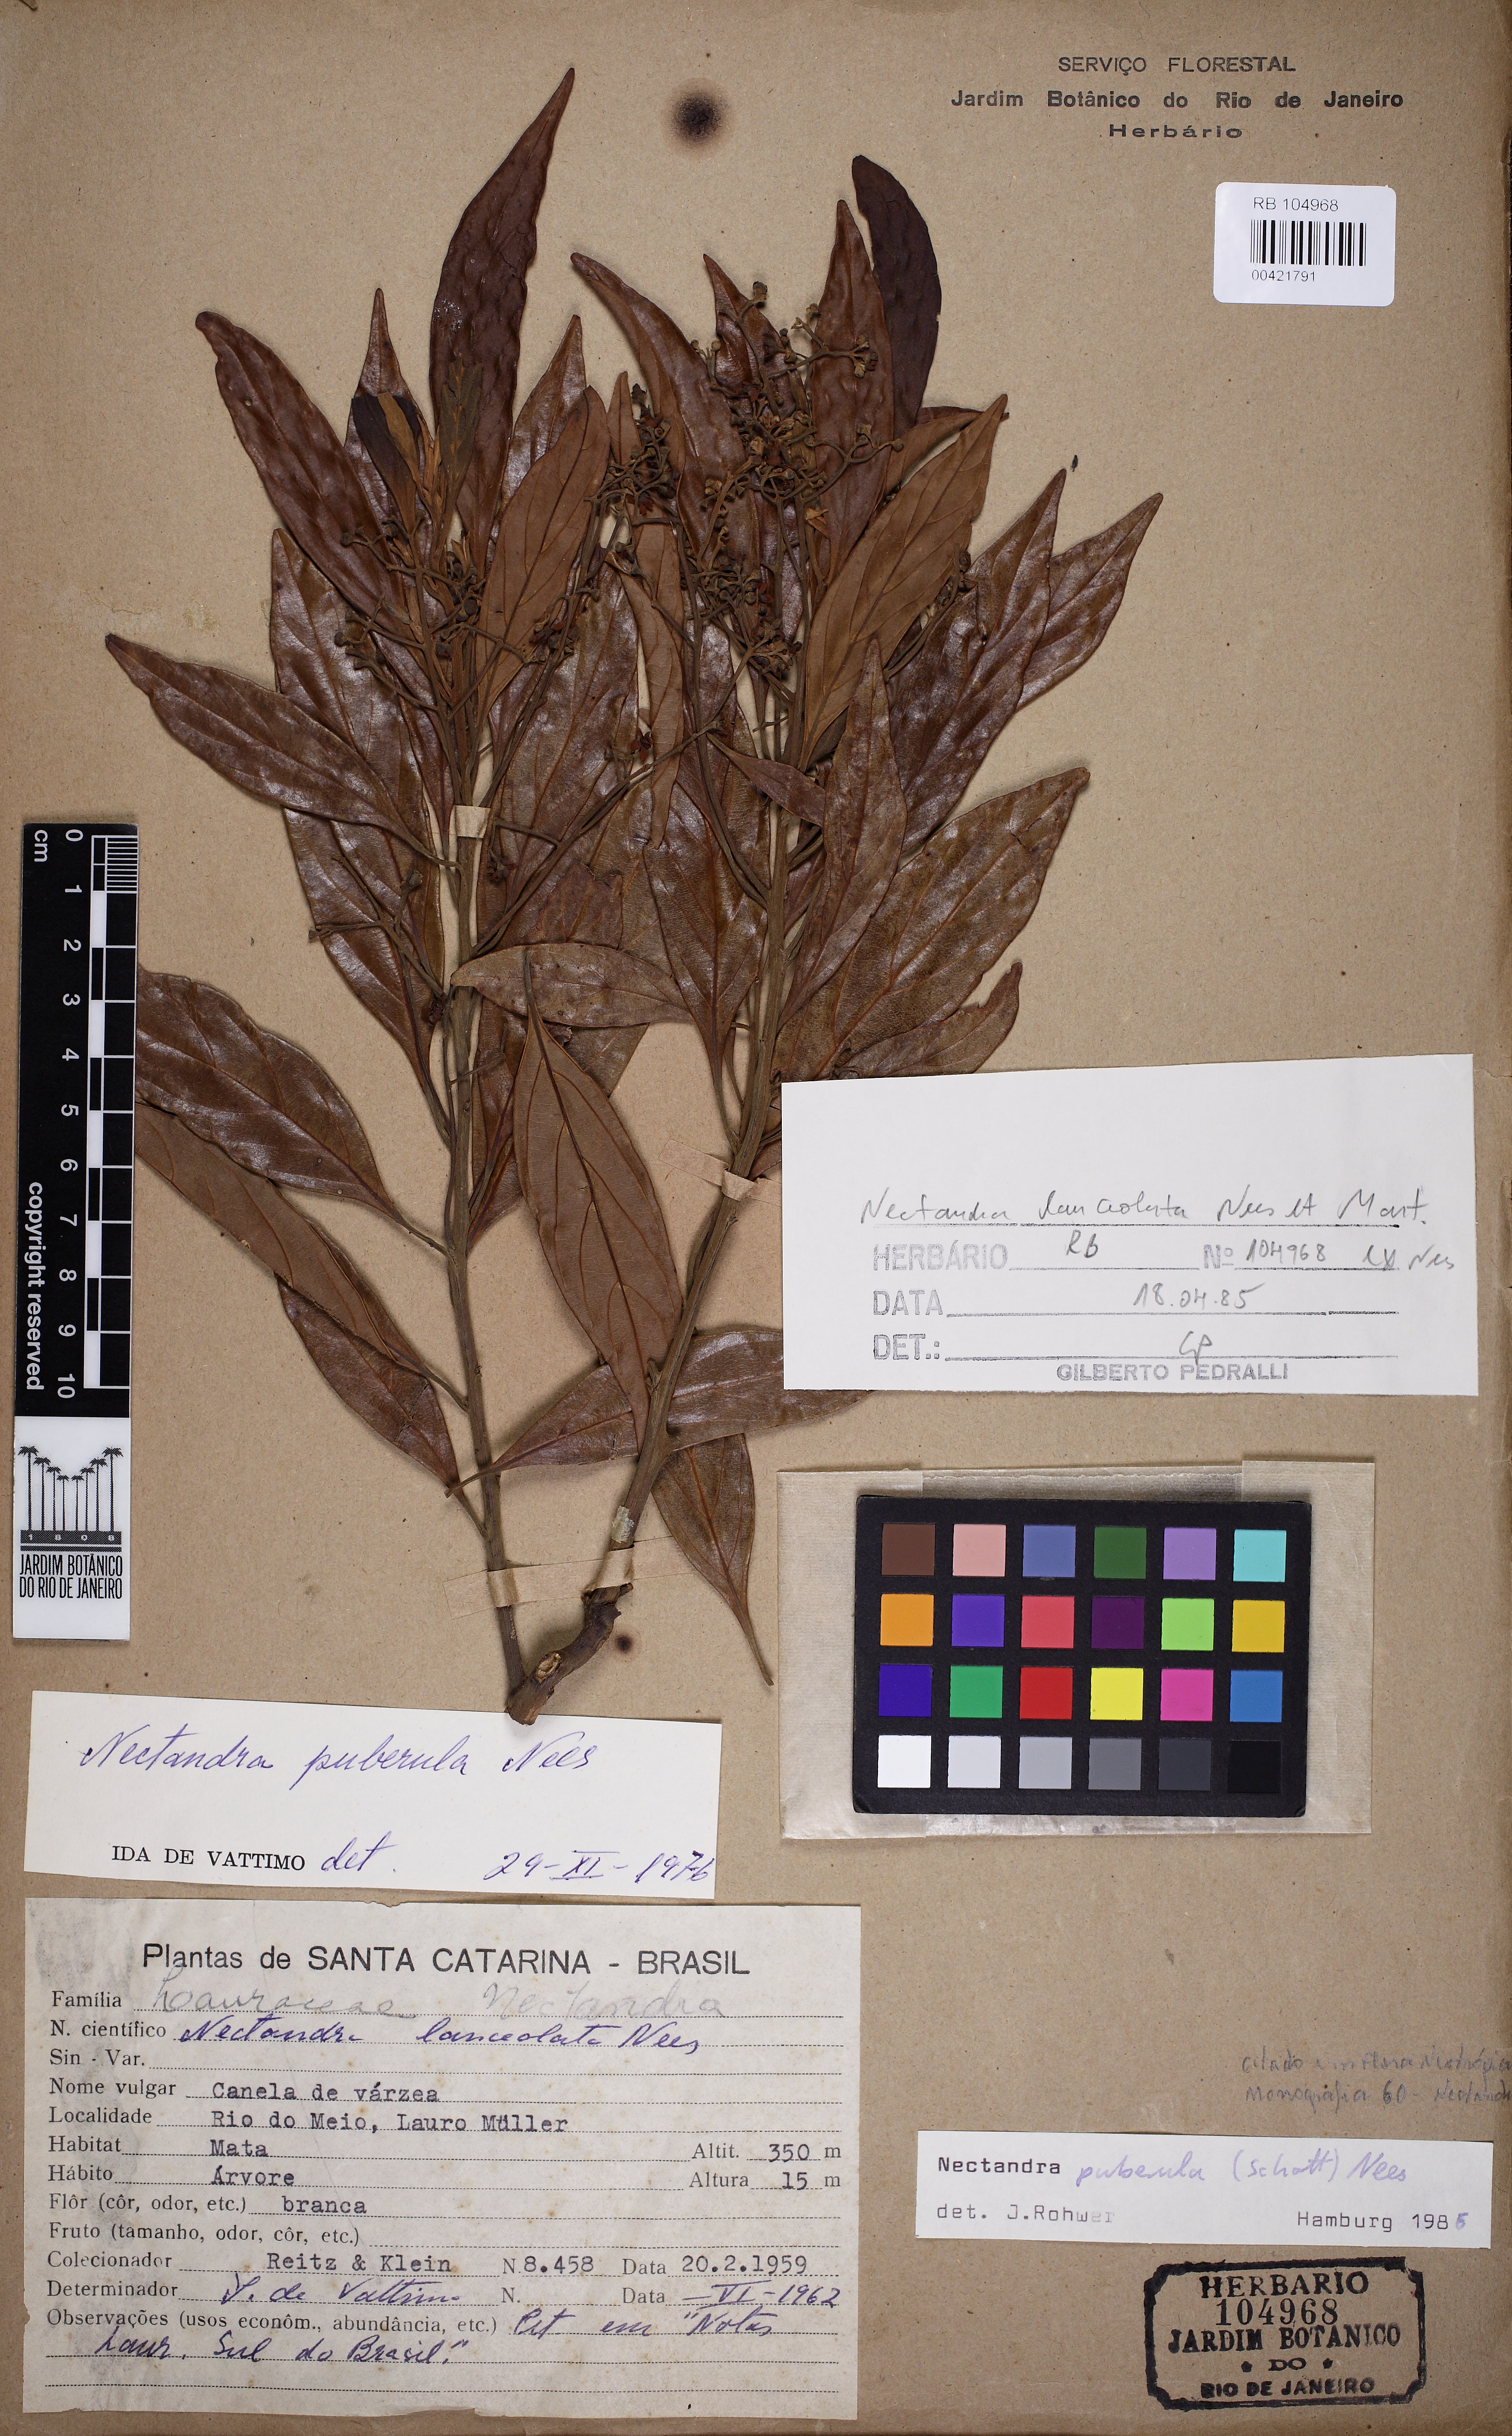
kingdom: Plantae
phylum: Tracheophyta
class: Magnoliopsida
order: Laurales
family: Lauraceae
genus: Nectandra
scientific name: Nectandra puberula
